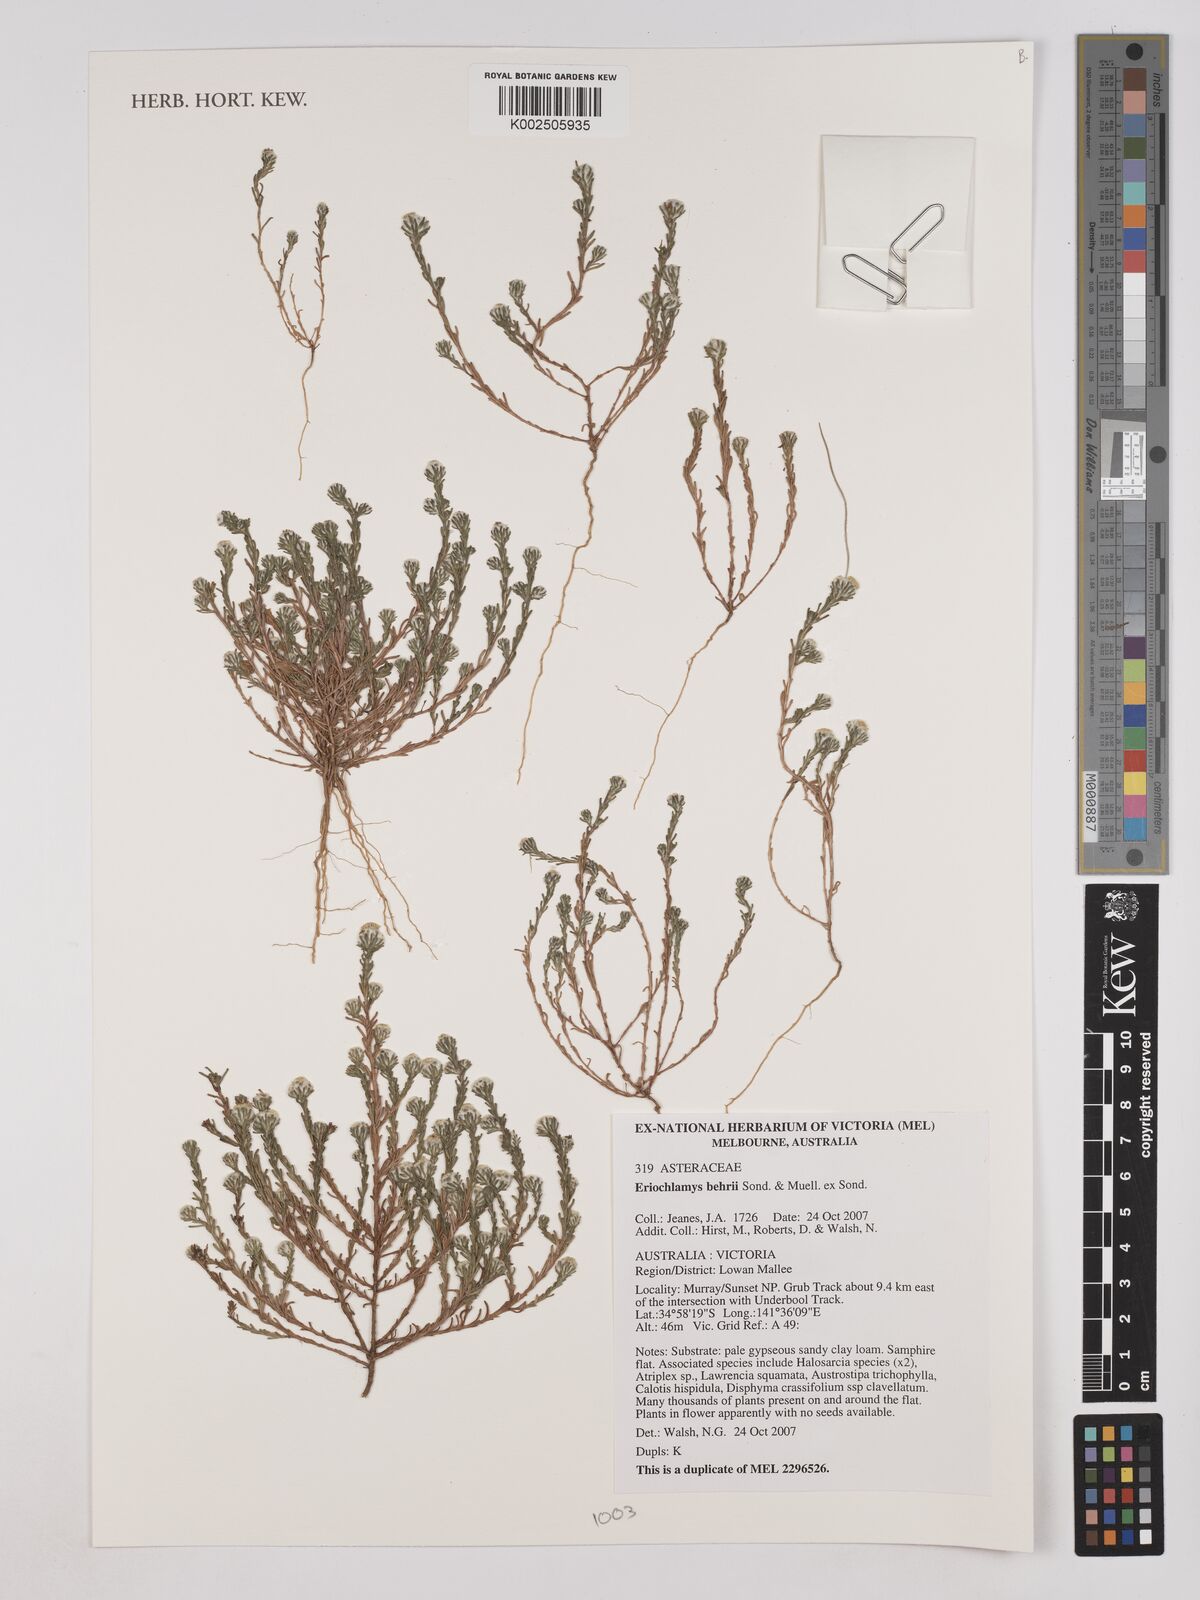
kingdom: Plantae
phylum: Tracheophyta
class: Magnoliopsida
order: Asterales
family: Asteraceae
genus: Eriochlamys
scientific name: Eriochlamys behrii
